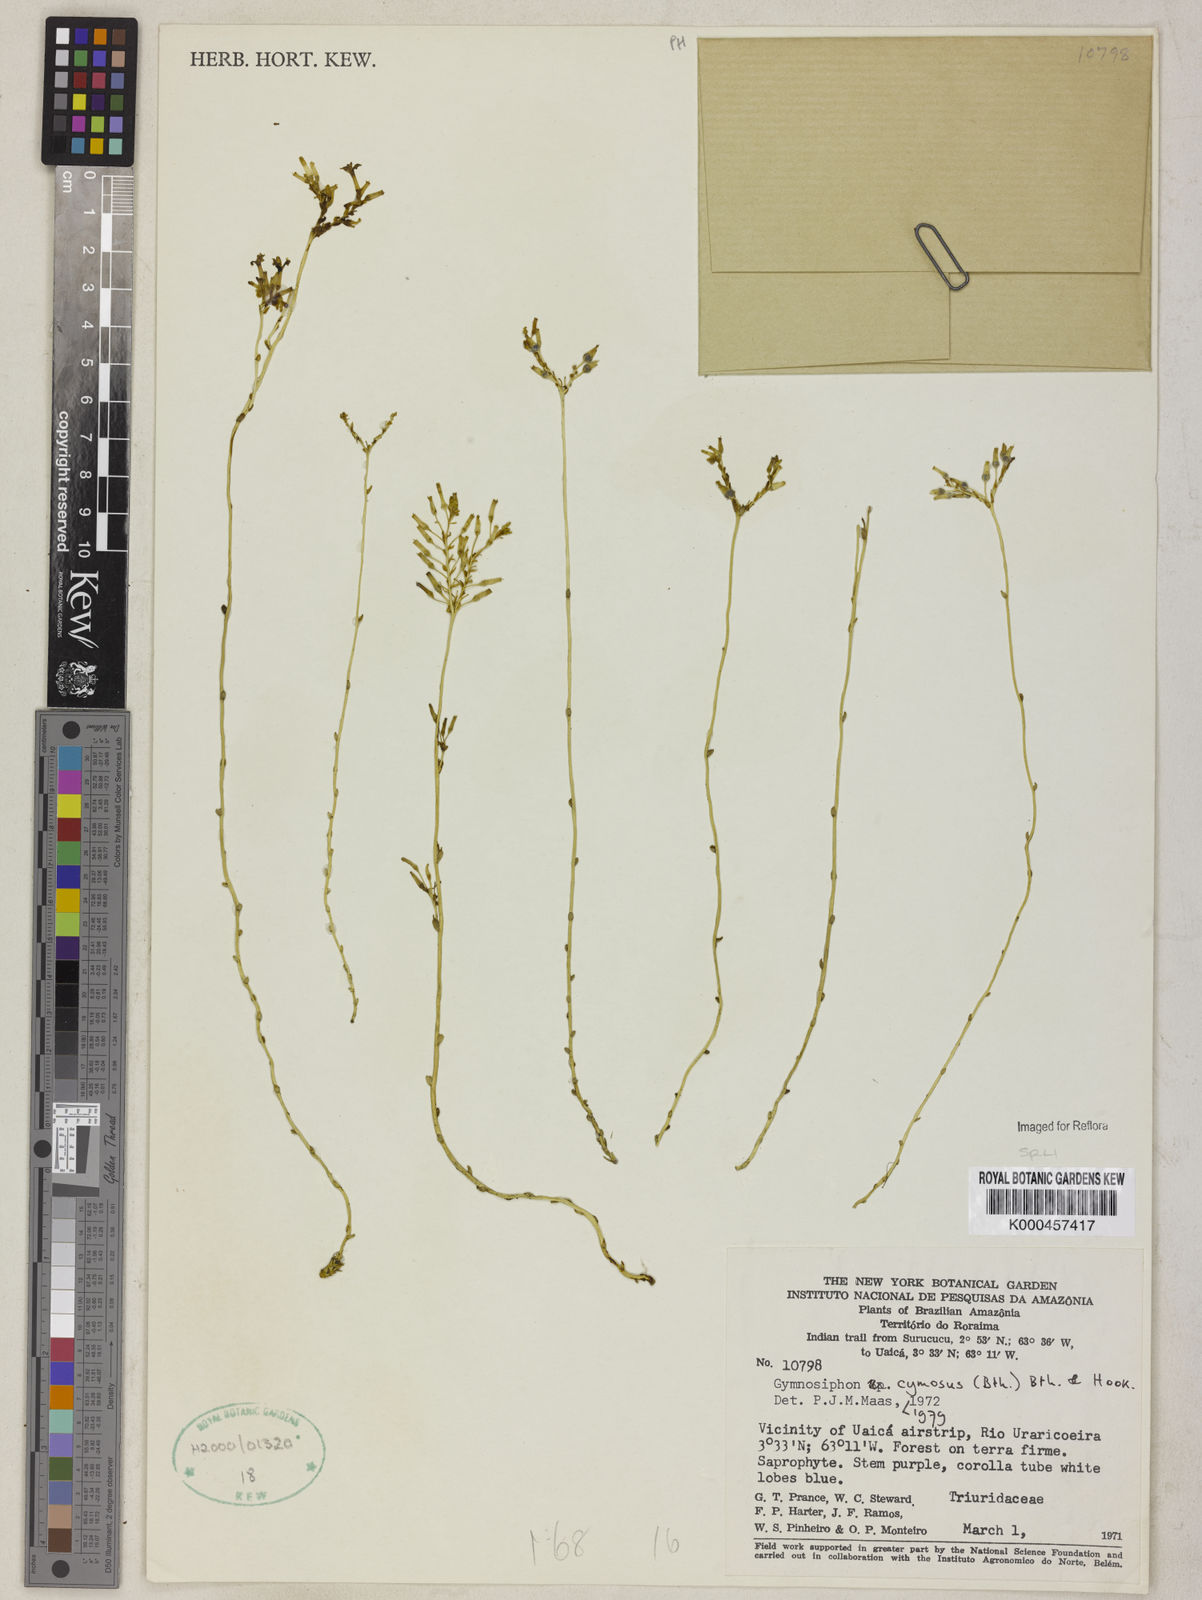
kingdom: Plantae
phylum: Tracheophyta
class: Liliopsida
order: Dioscoreales
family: Burmanniaceae
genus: Gymnosiphon
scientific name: Gymnosiphon cymosus
